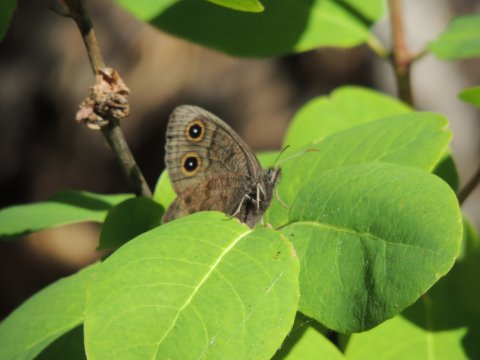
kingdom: Animalia
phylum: Arthropoda
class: Insecta
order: Lepidoptera
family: Nymphalidae
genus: Cercyonis
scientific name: Cercyonis pegala
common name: Common Wood-Nymph
